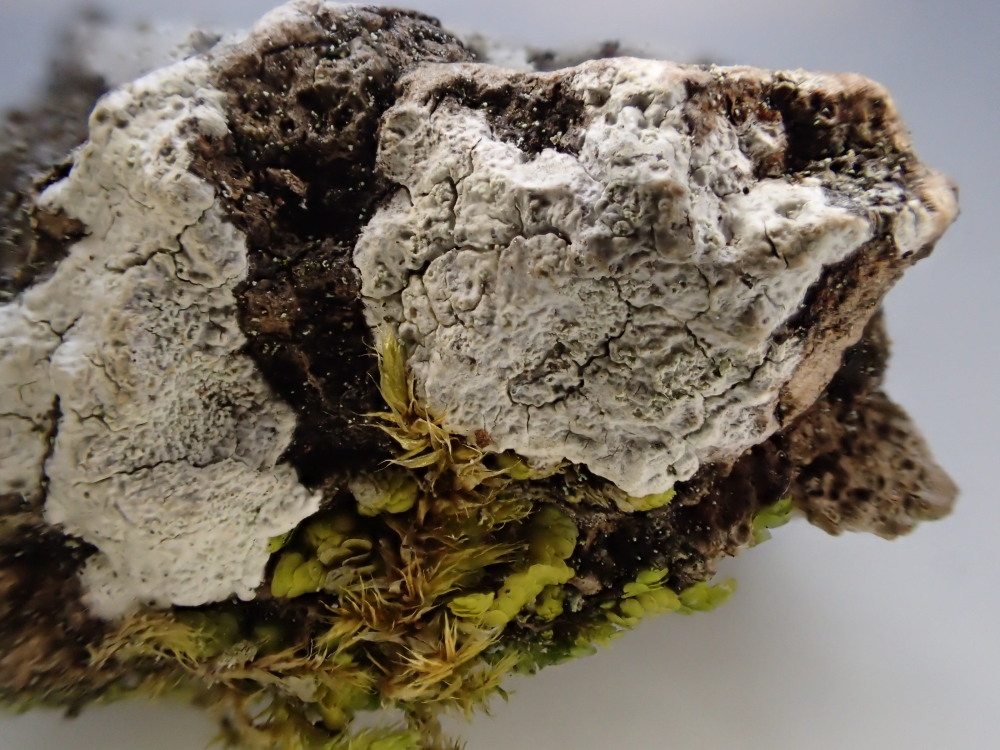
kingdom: Fungi
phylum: Ascomycota
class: Lecanoromycetes
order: Ostropales
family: Phlyctidaceae
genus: Phlyctis
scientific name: Phlyctis argena
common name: almindelig sølvlav
